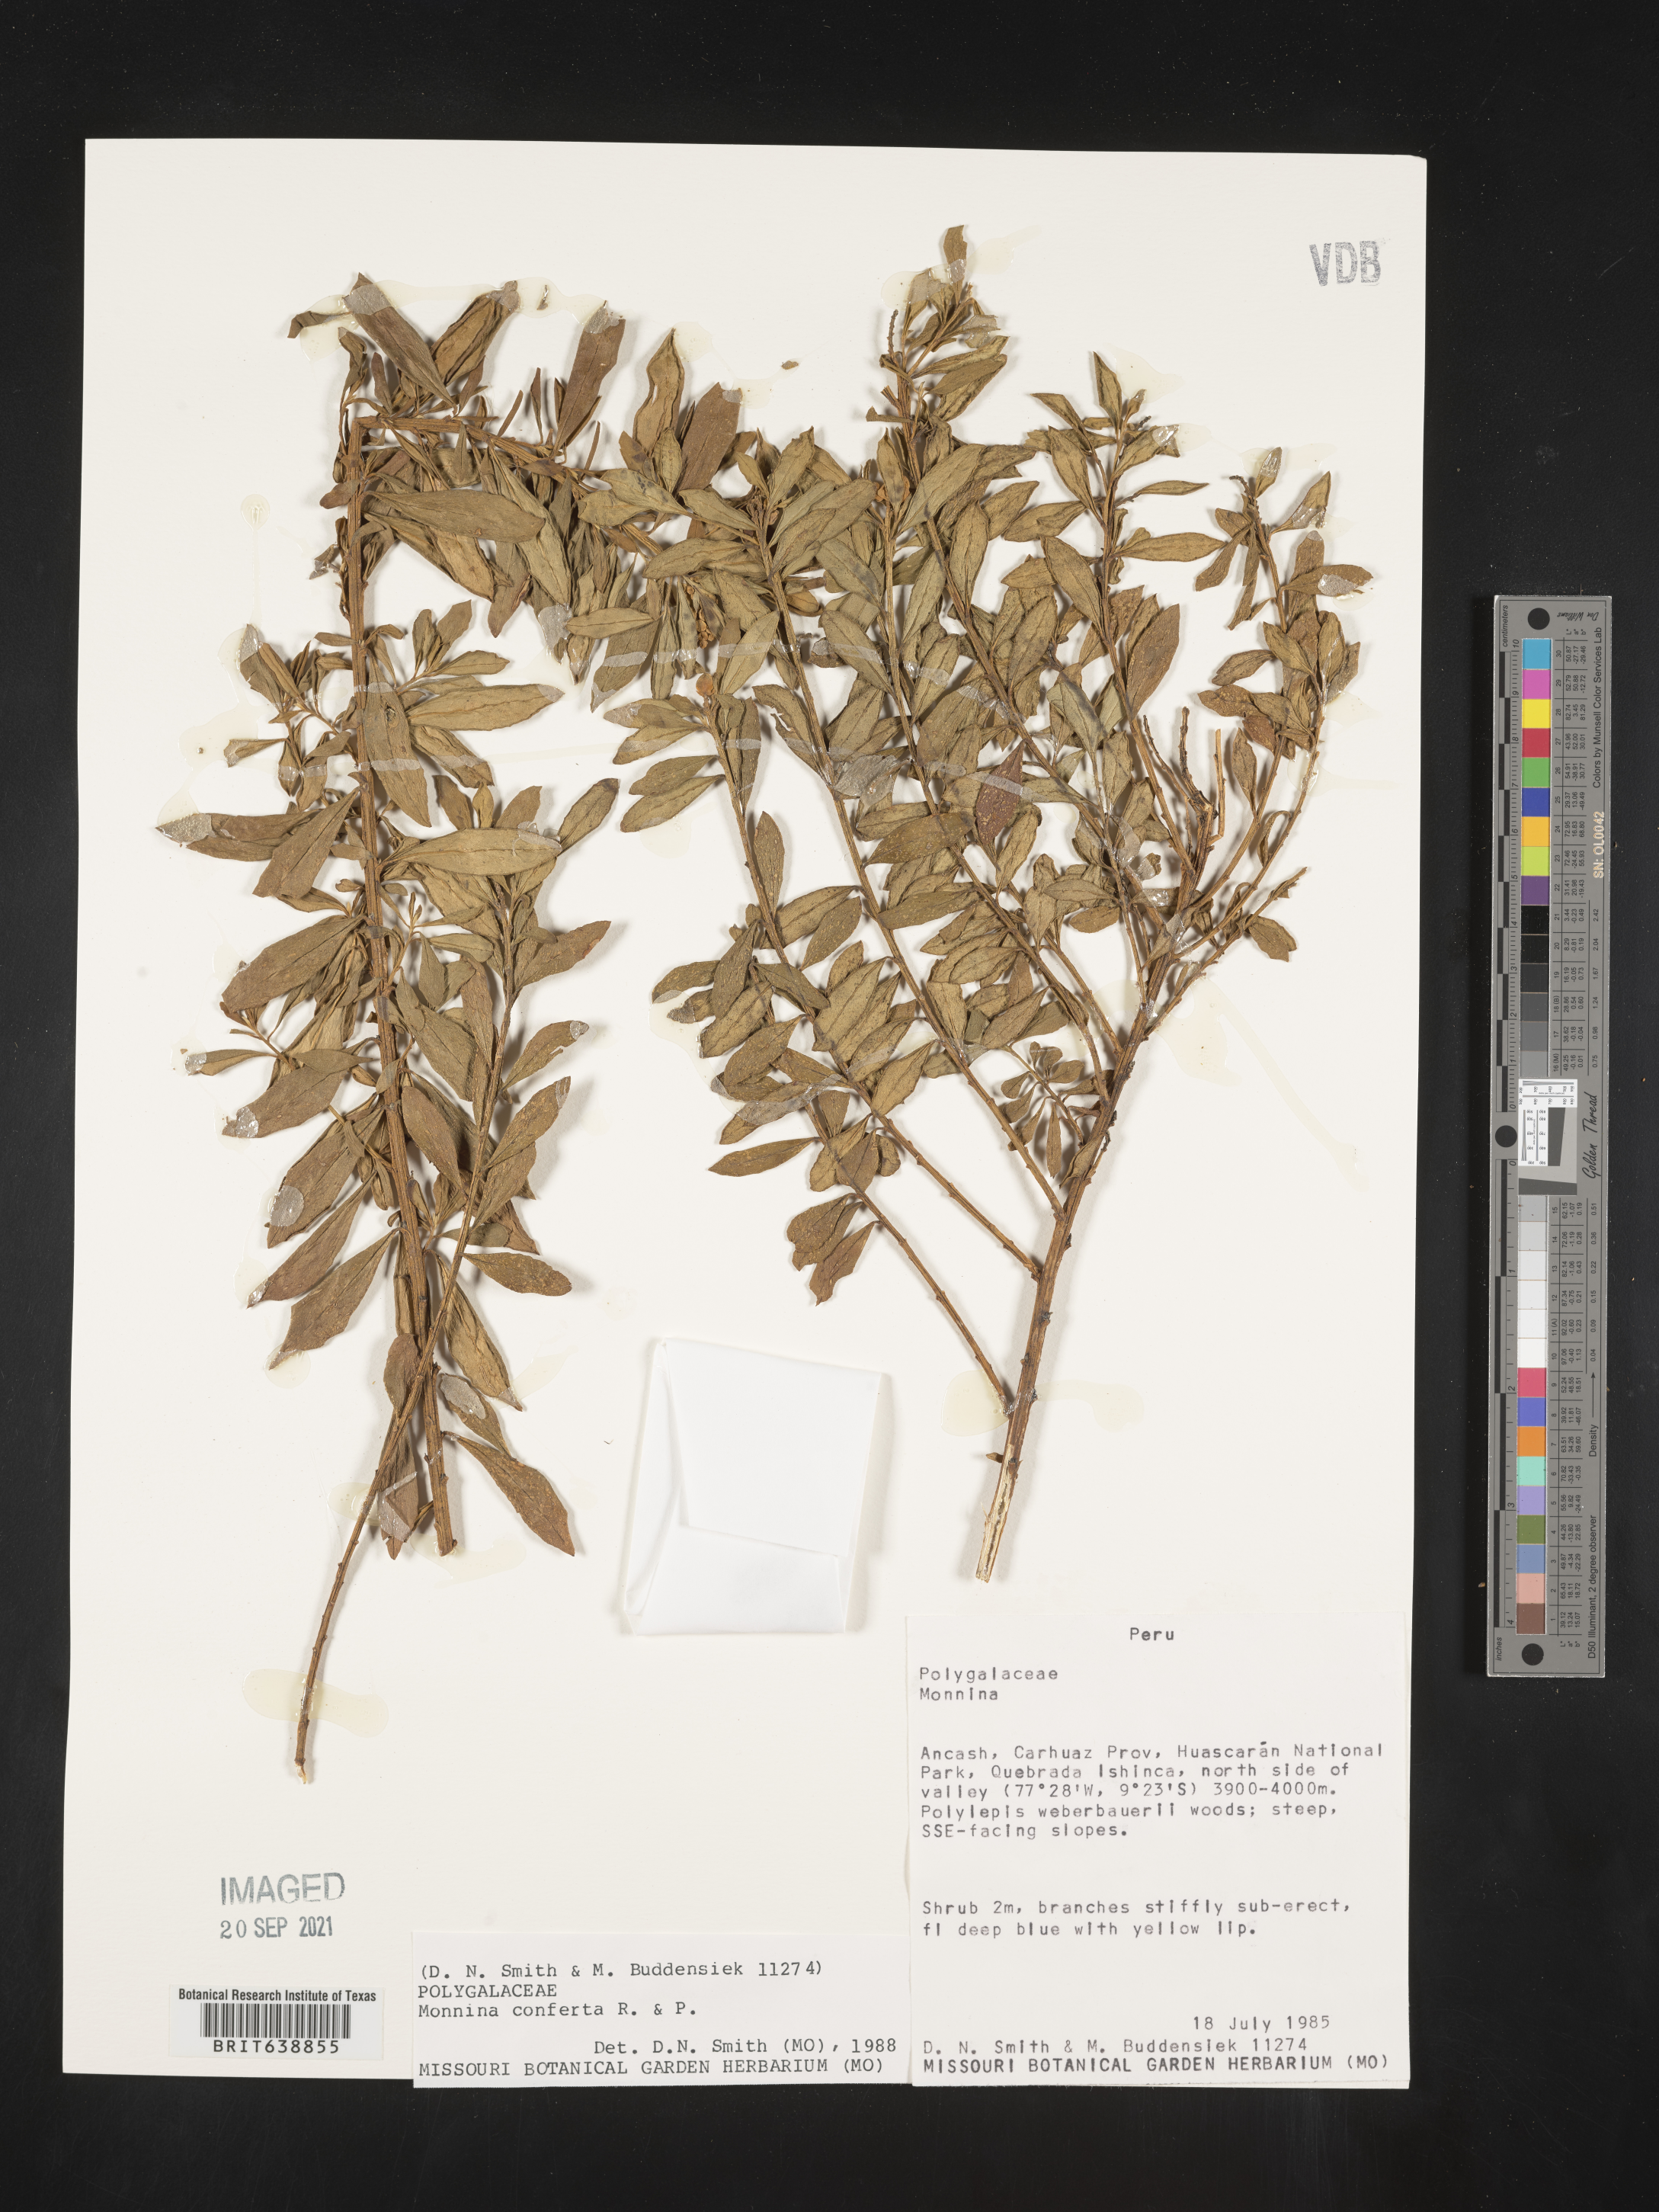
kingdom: Plantae
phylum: Tracheophyta
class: Magnoliopsida
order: Fabales
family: Polygalaceae
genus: Monnina
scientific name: Monnina
